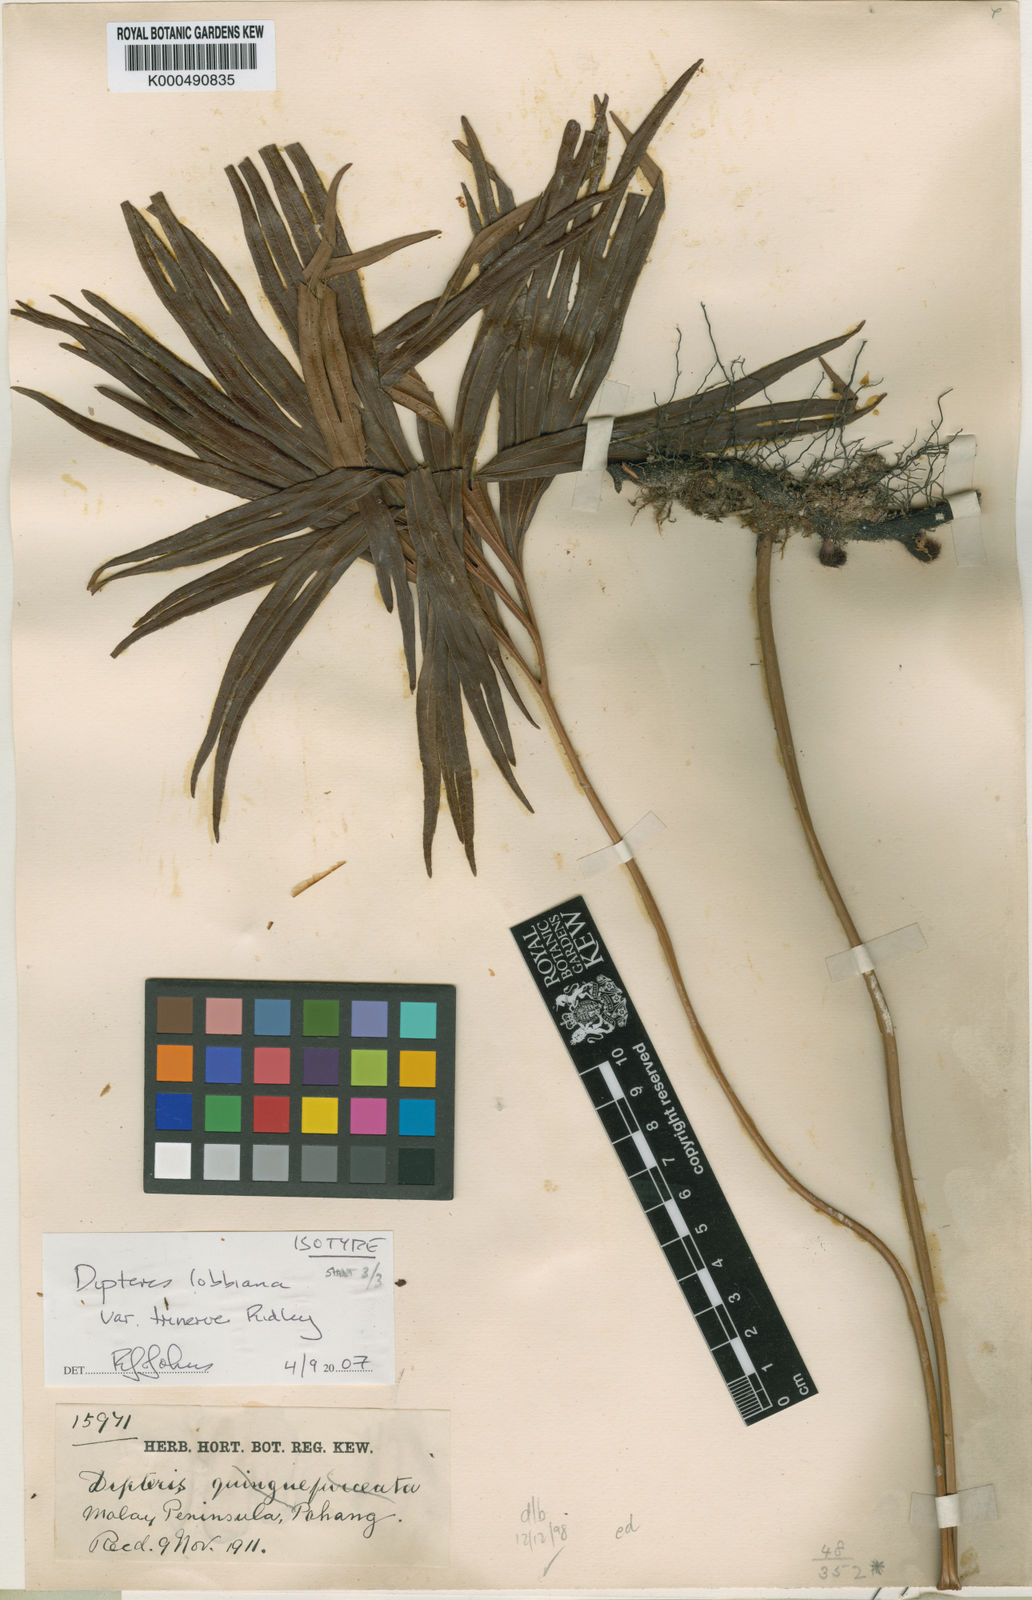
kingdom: Plantae
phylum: Tracheophyta
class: Polypodiopsida
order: Gleicheniales
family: Dipteridaceae
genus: Dipteris
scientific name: Dipteris lobbiana
